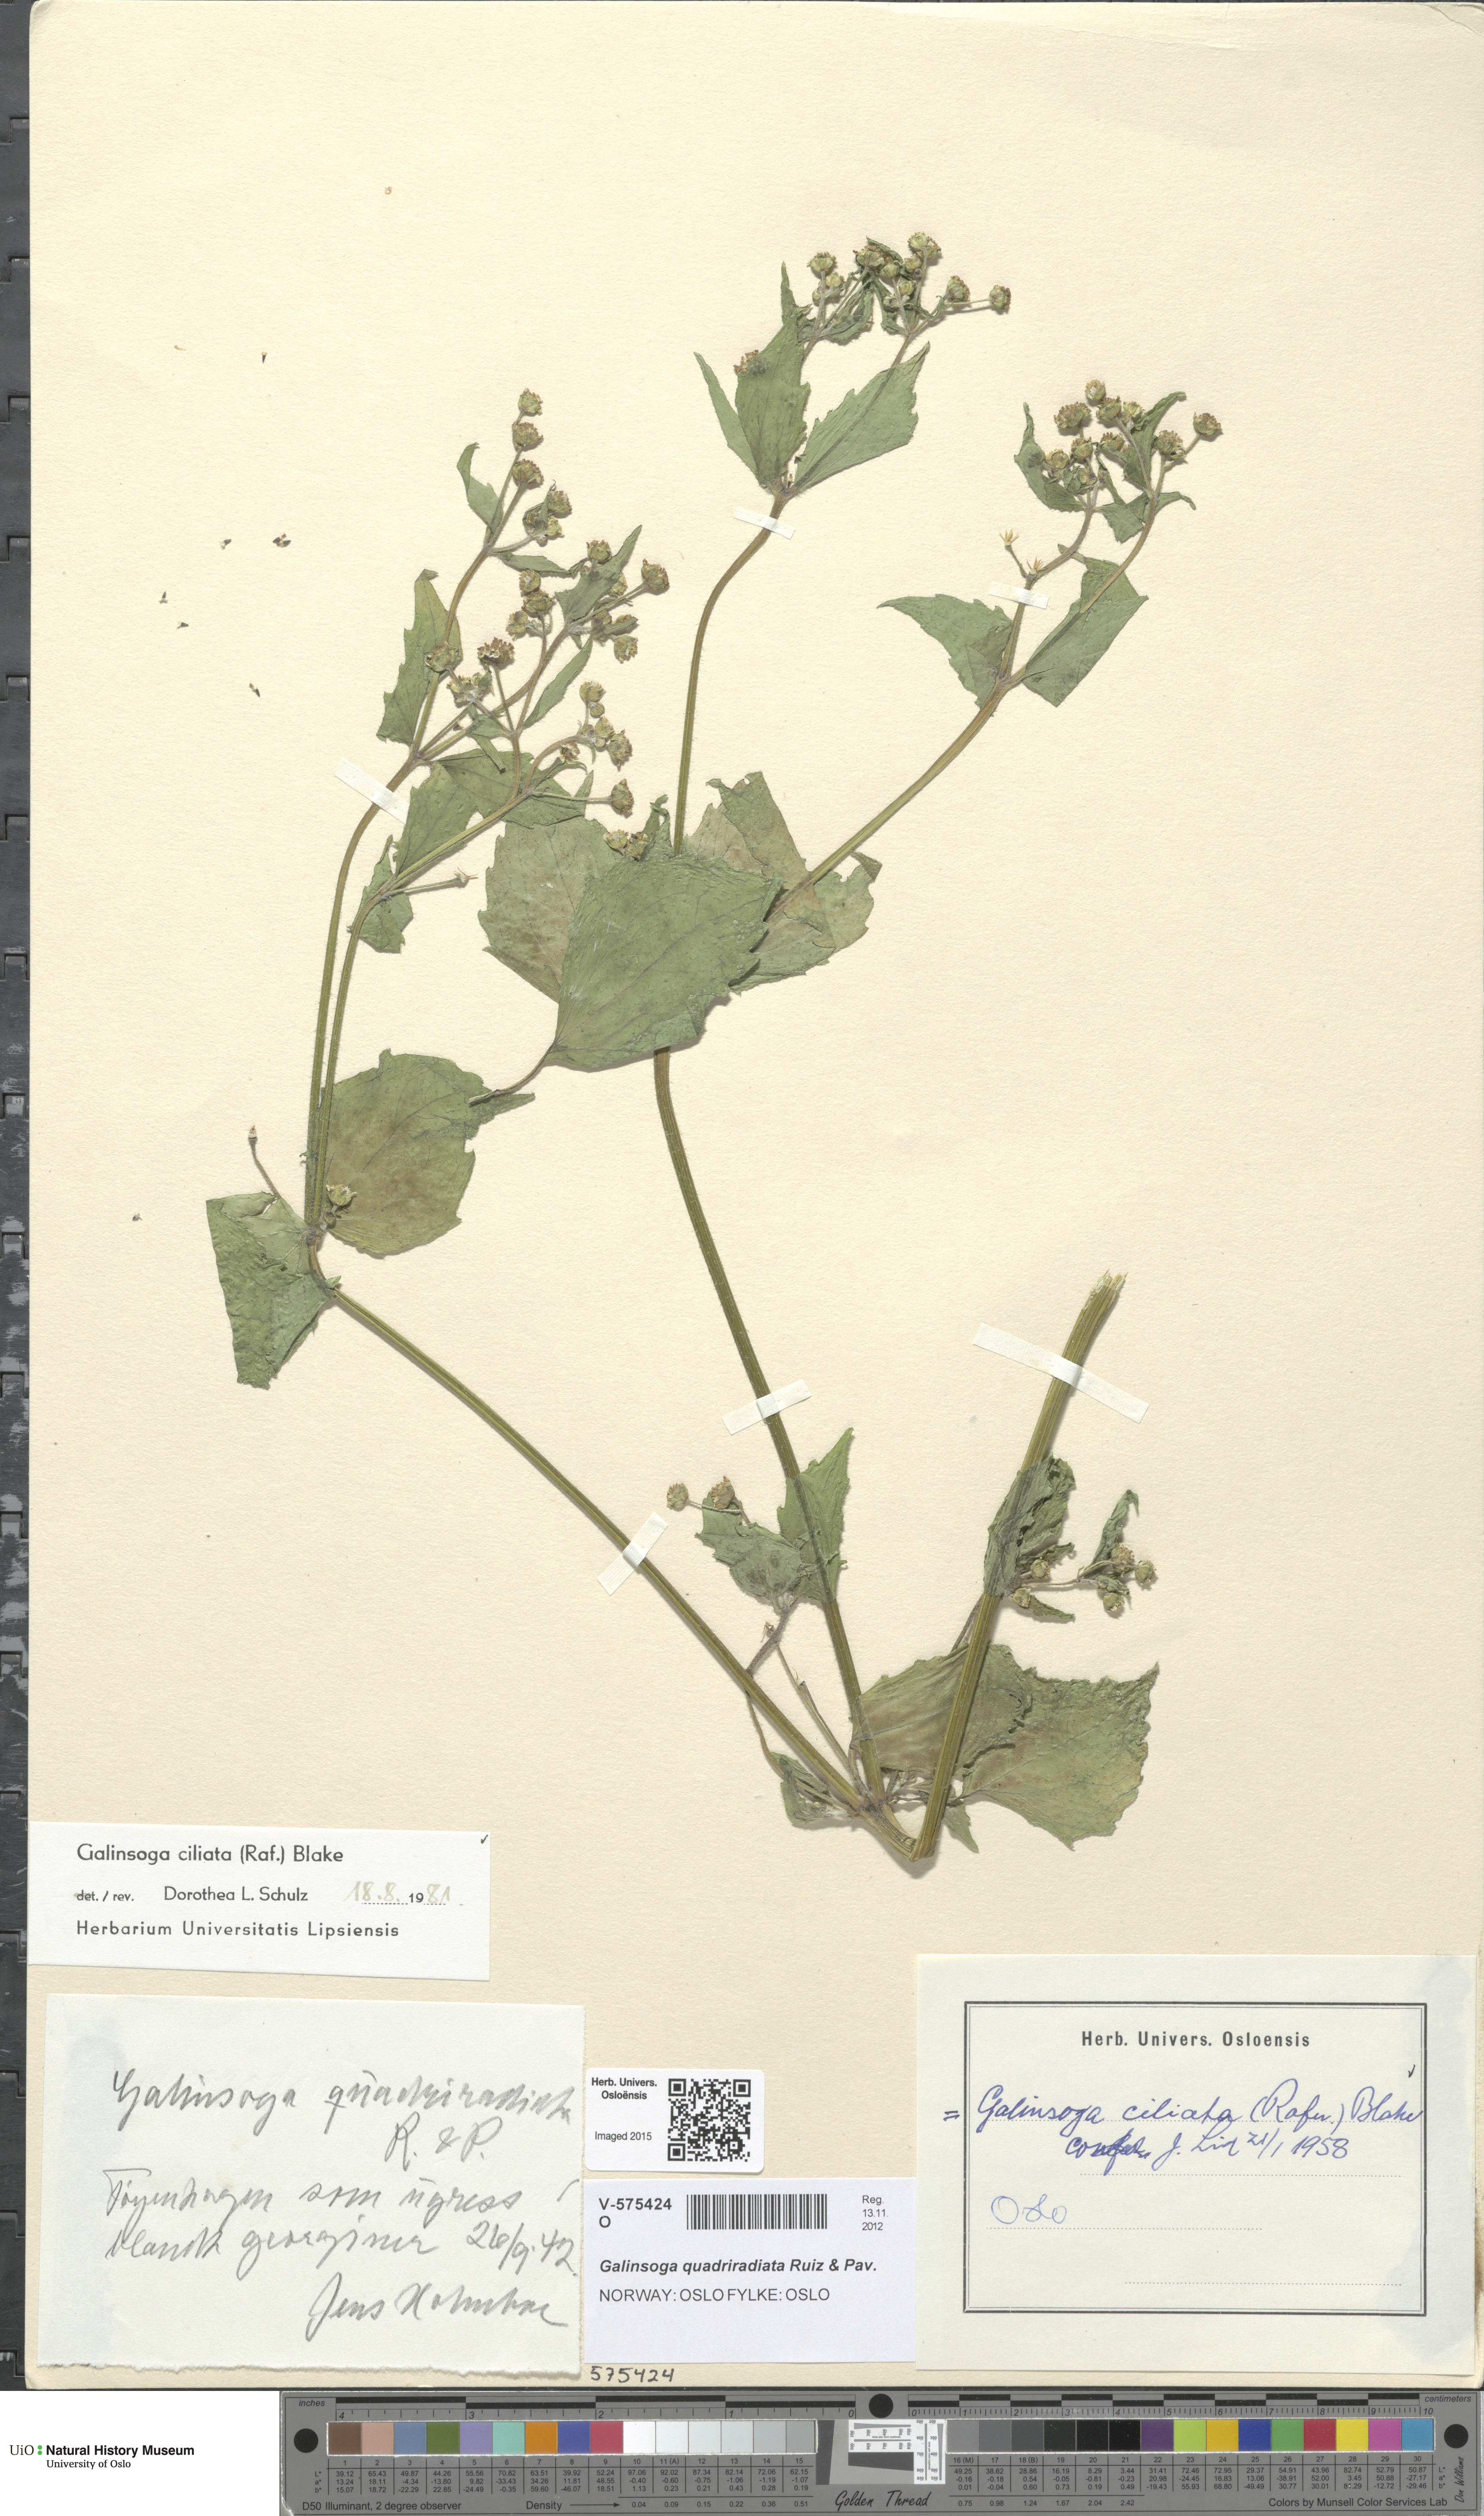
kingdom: Plantae
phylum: Tracheophyta
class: Magnoliopsida
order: Asterales
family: Asteraceae
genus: Galinsoga
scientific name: Galinsoga quadriradiata
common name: Shaggy soldier
